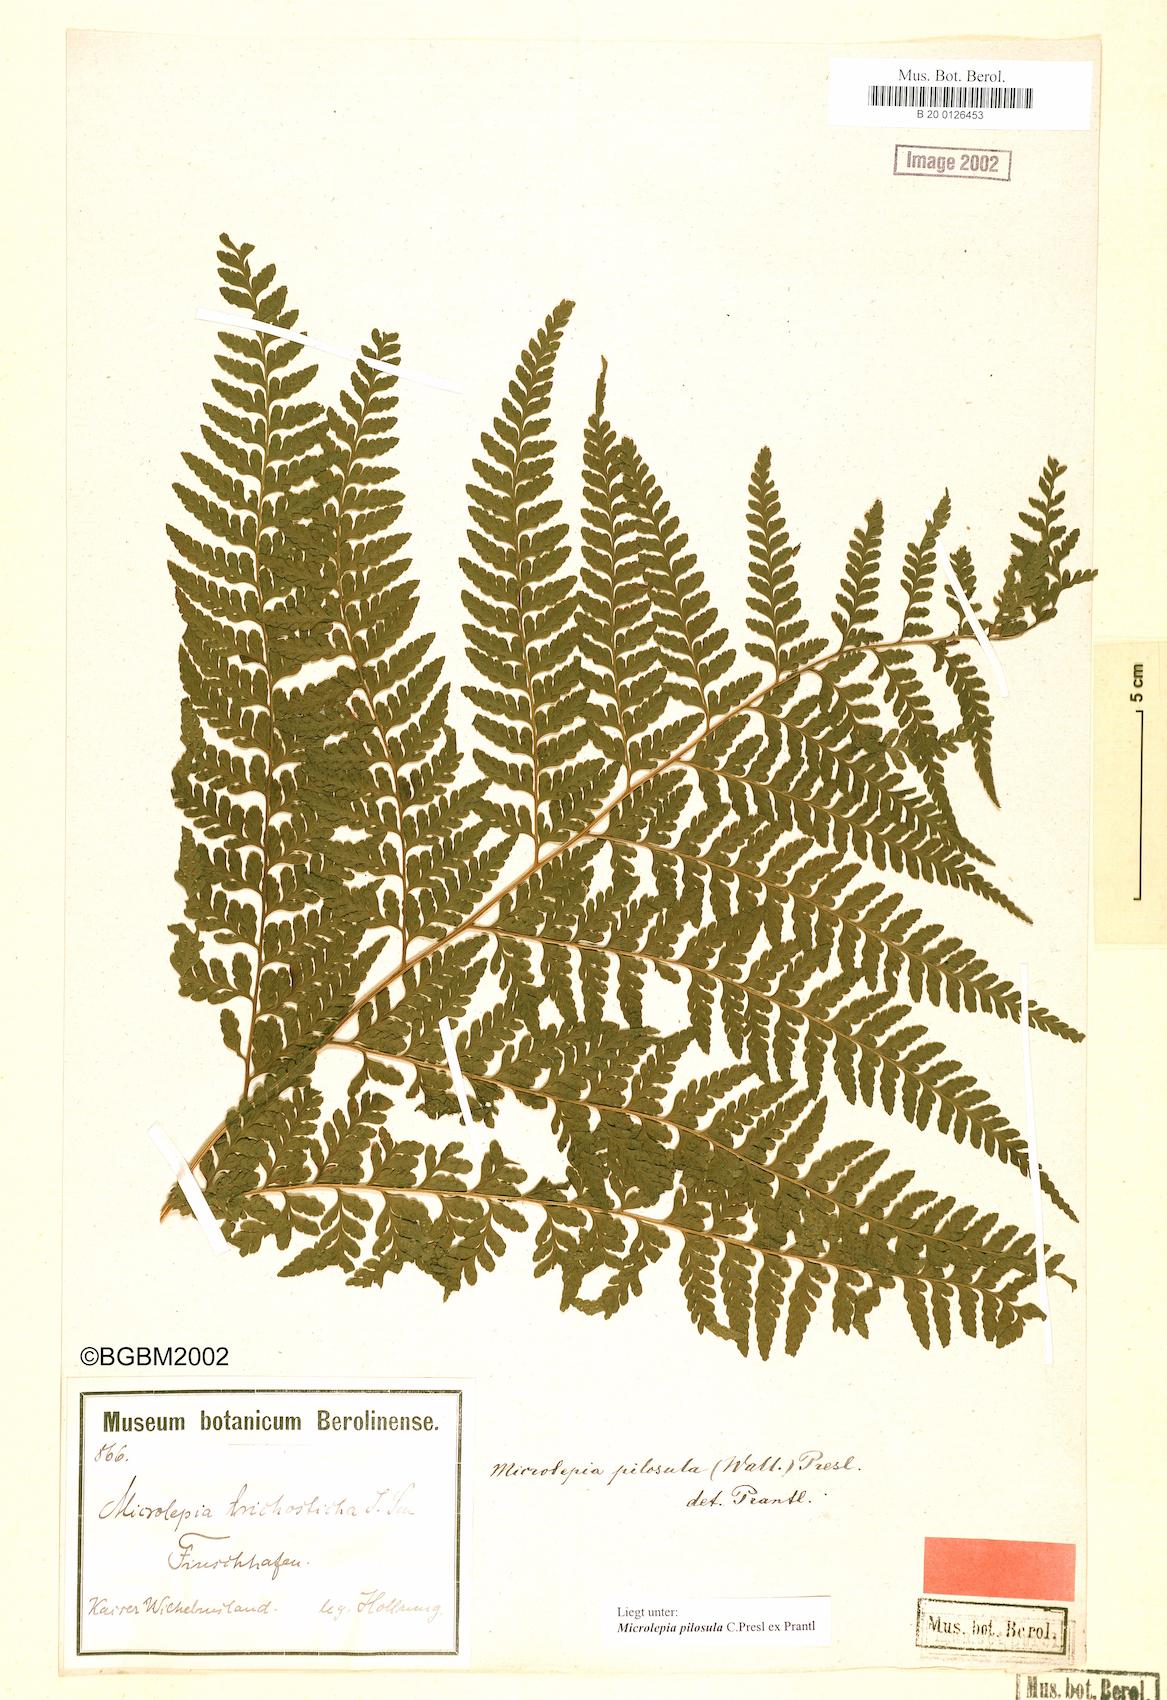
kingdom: Plantae
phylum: Tracheophyta
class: Polypodiopsida
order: Polypodiales
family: Dennstaedtiaceae
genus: Microlepia
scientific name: Microlepia speluncae
